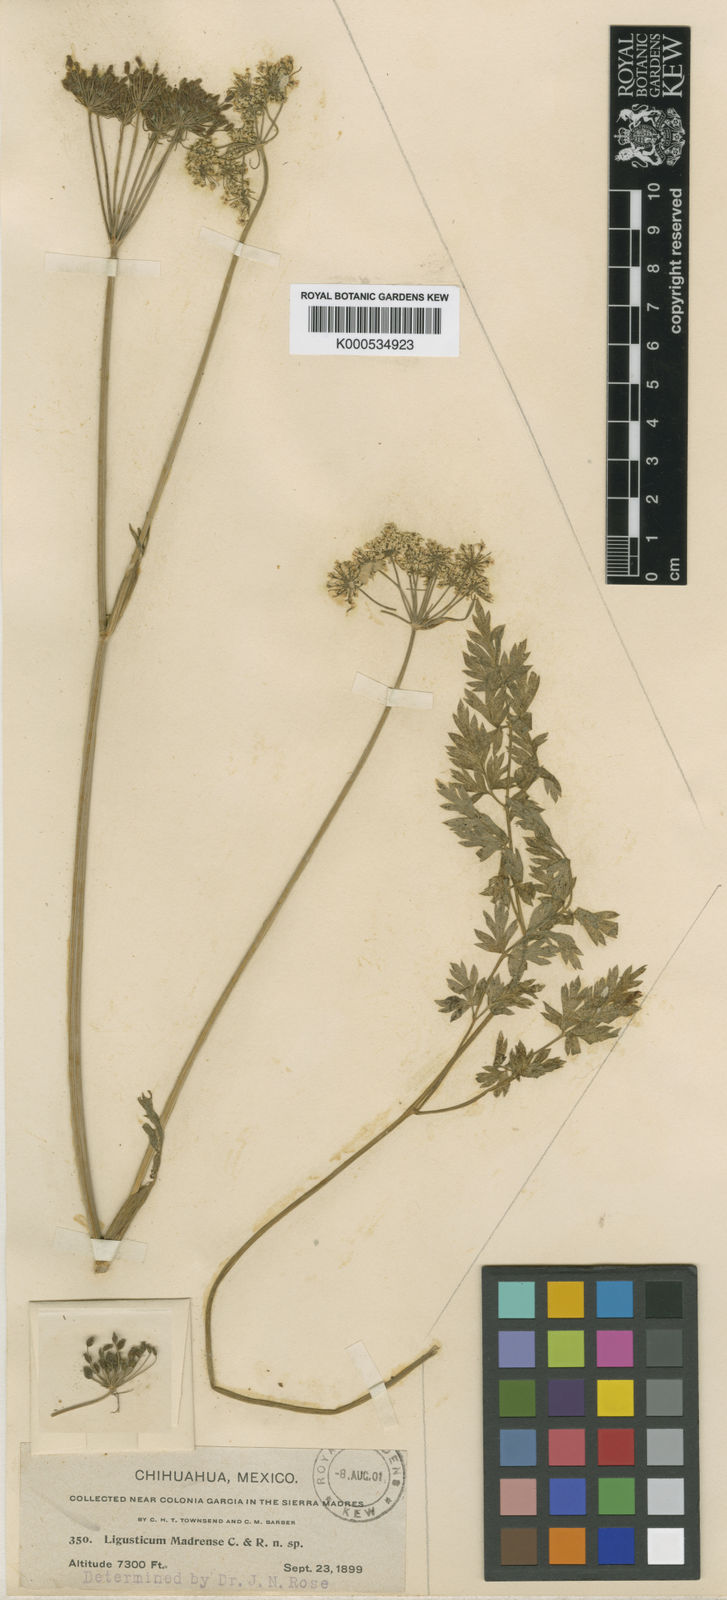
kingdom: Plantae
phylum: Tracheophyta
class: Magnoliopsida
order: Apiales
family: Apiaceae
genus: Ligusticum
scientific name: Ligusticum porteri
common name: Mountain lovage
